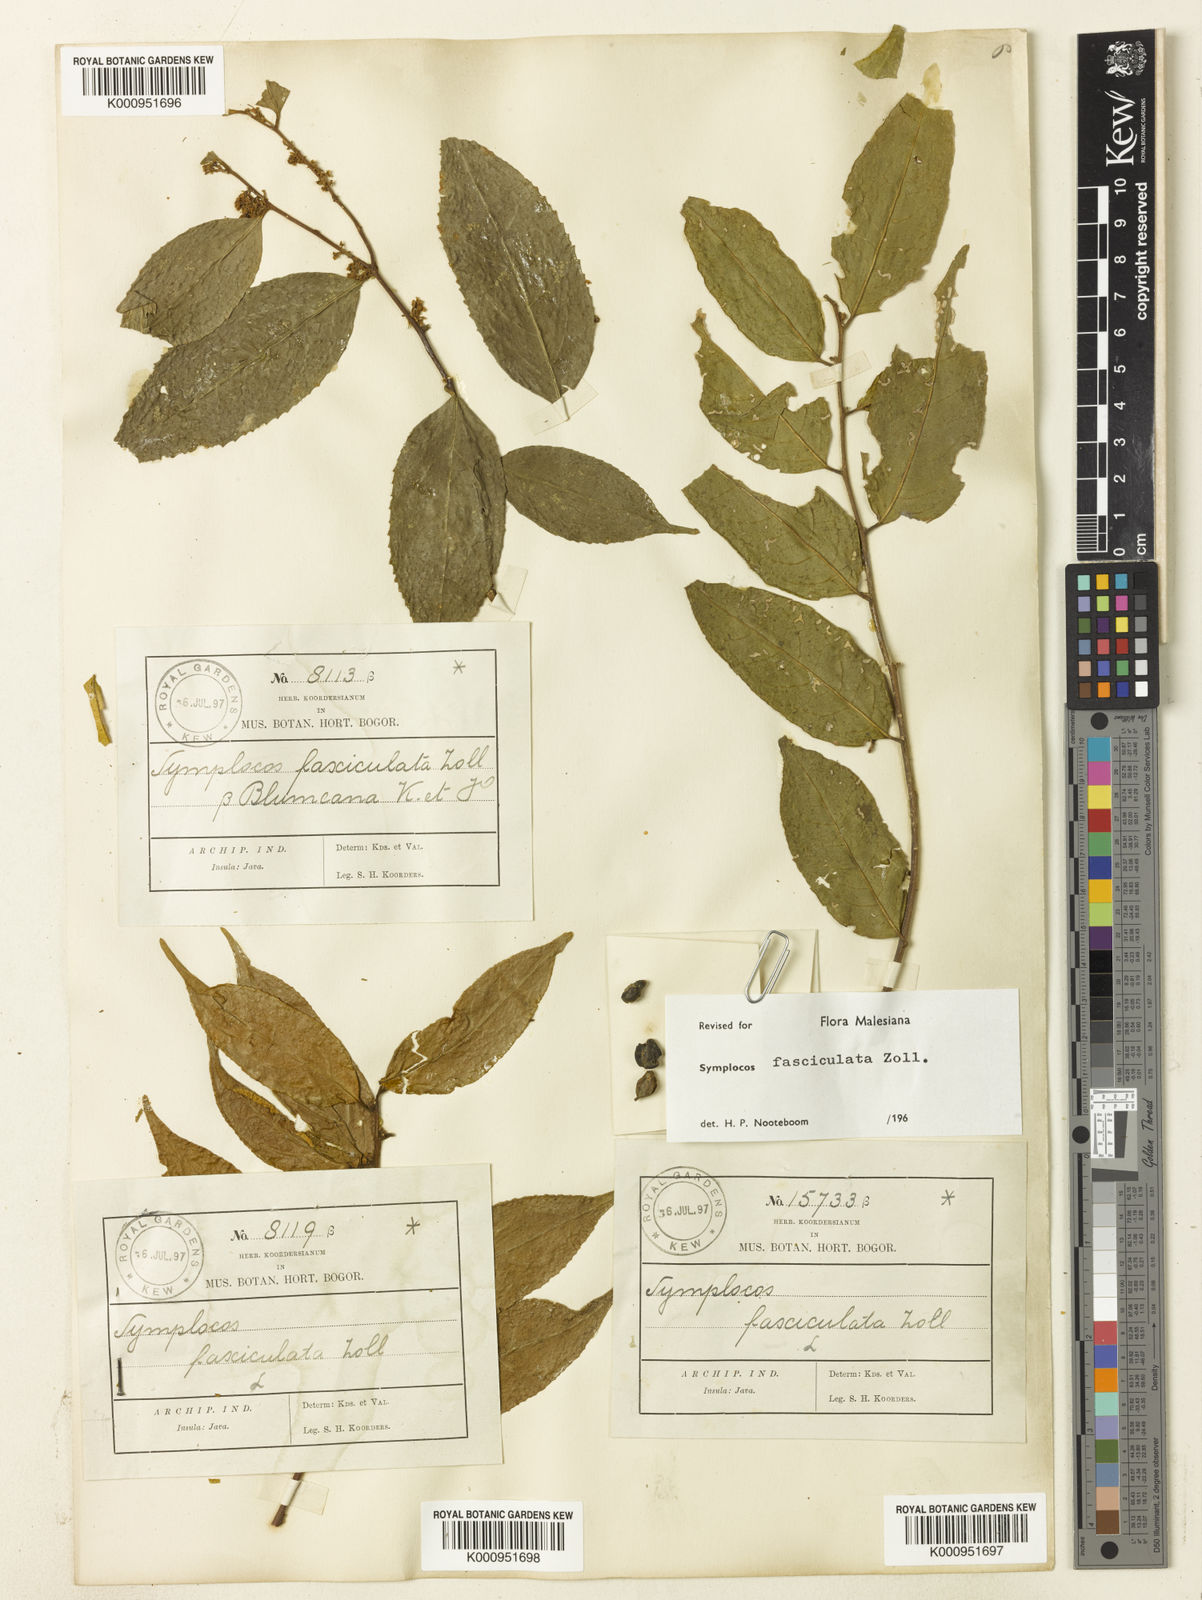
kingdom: Plantae
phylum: Tracheophyta
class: Magnoliopsida
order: Ericales
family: Symplocaceae
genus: Symplocos
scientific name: Symplocos fasciculata
